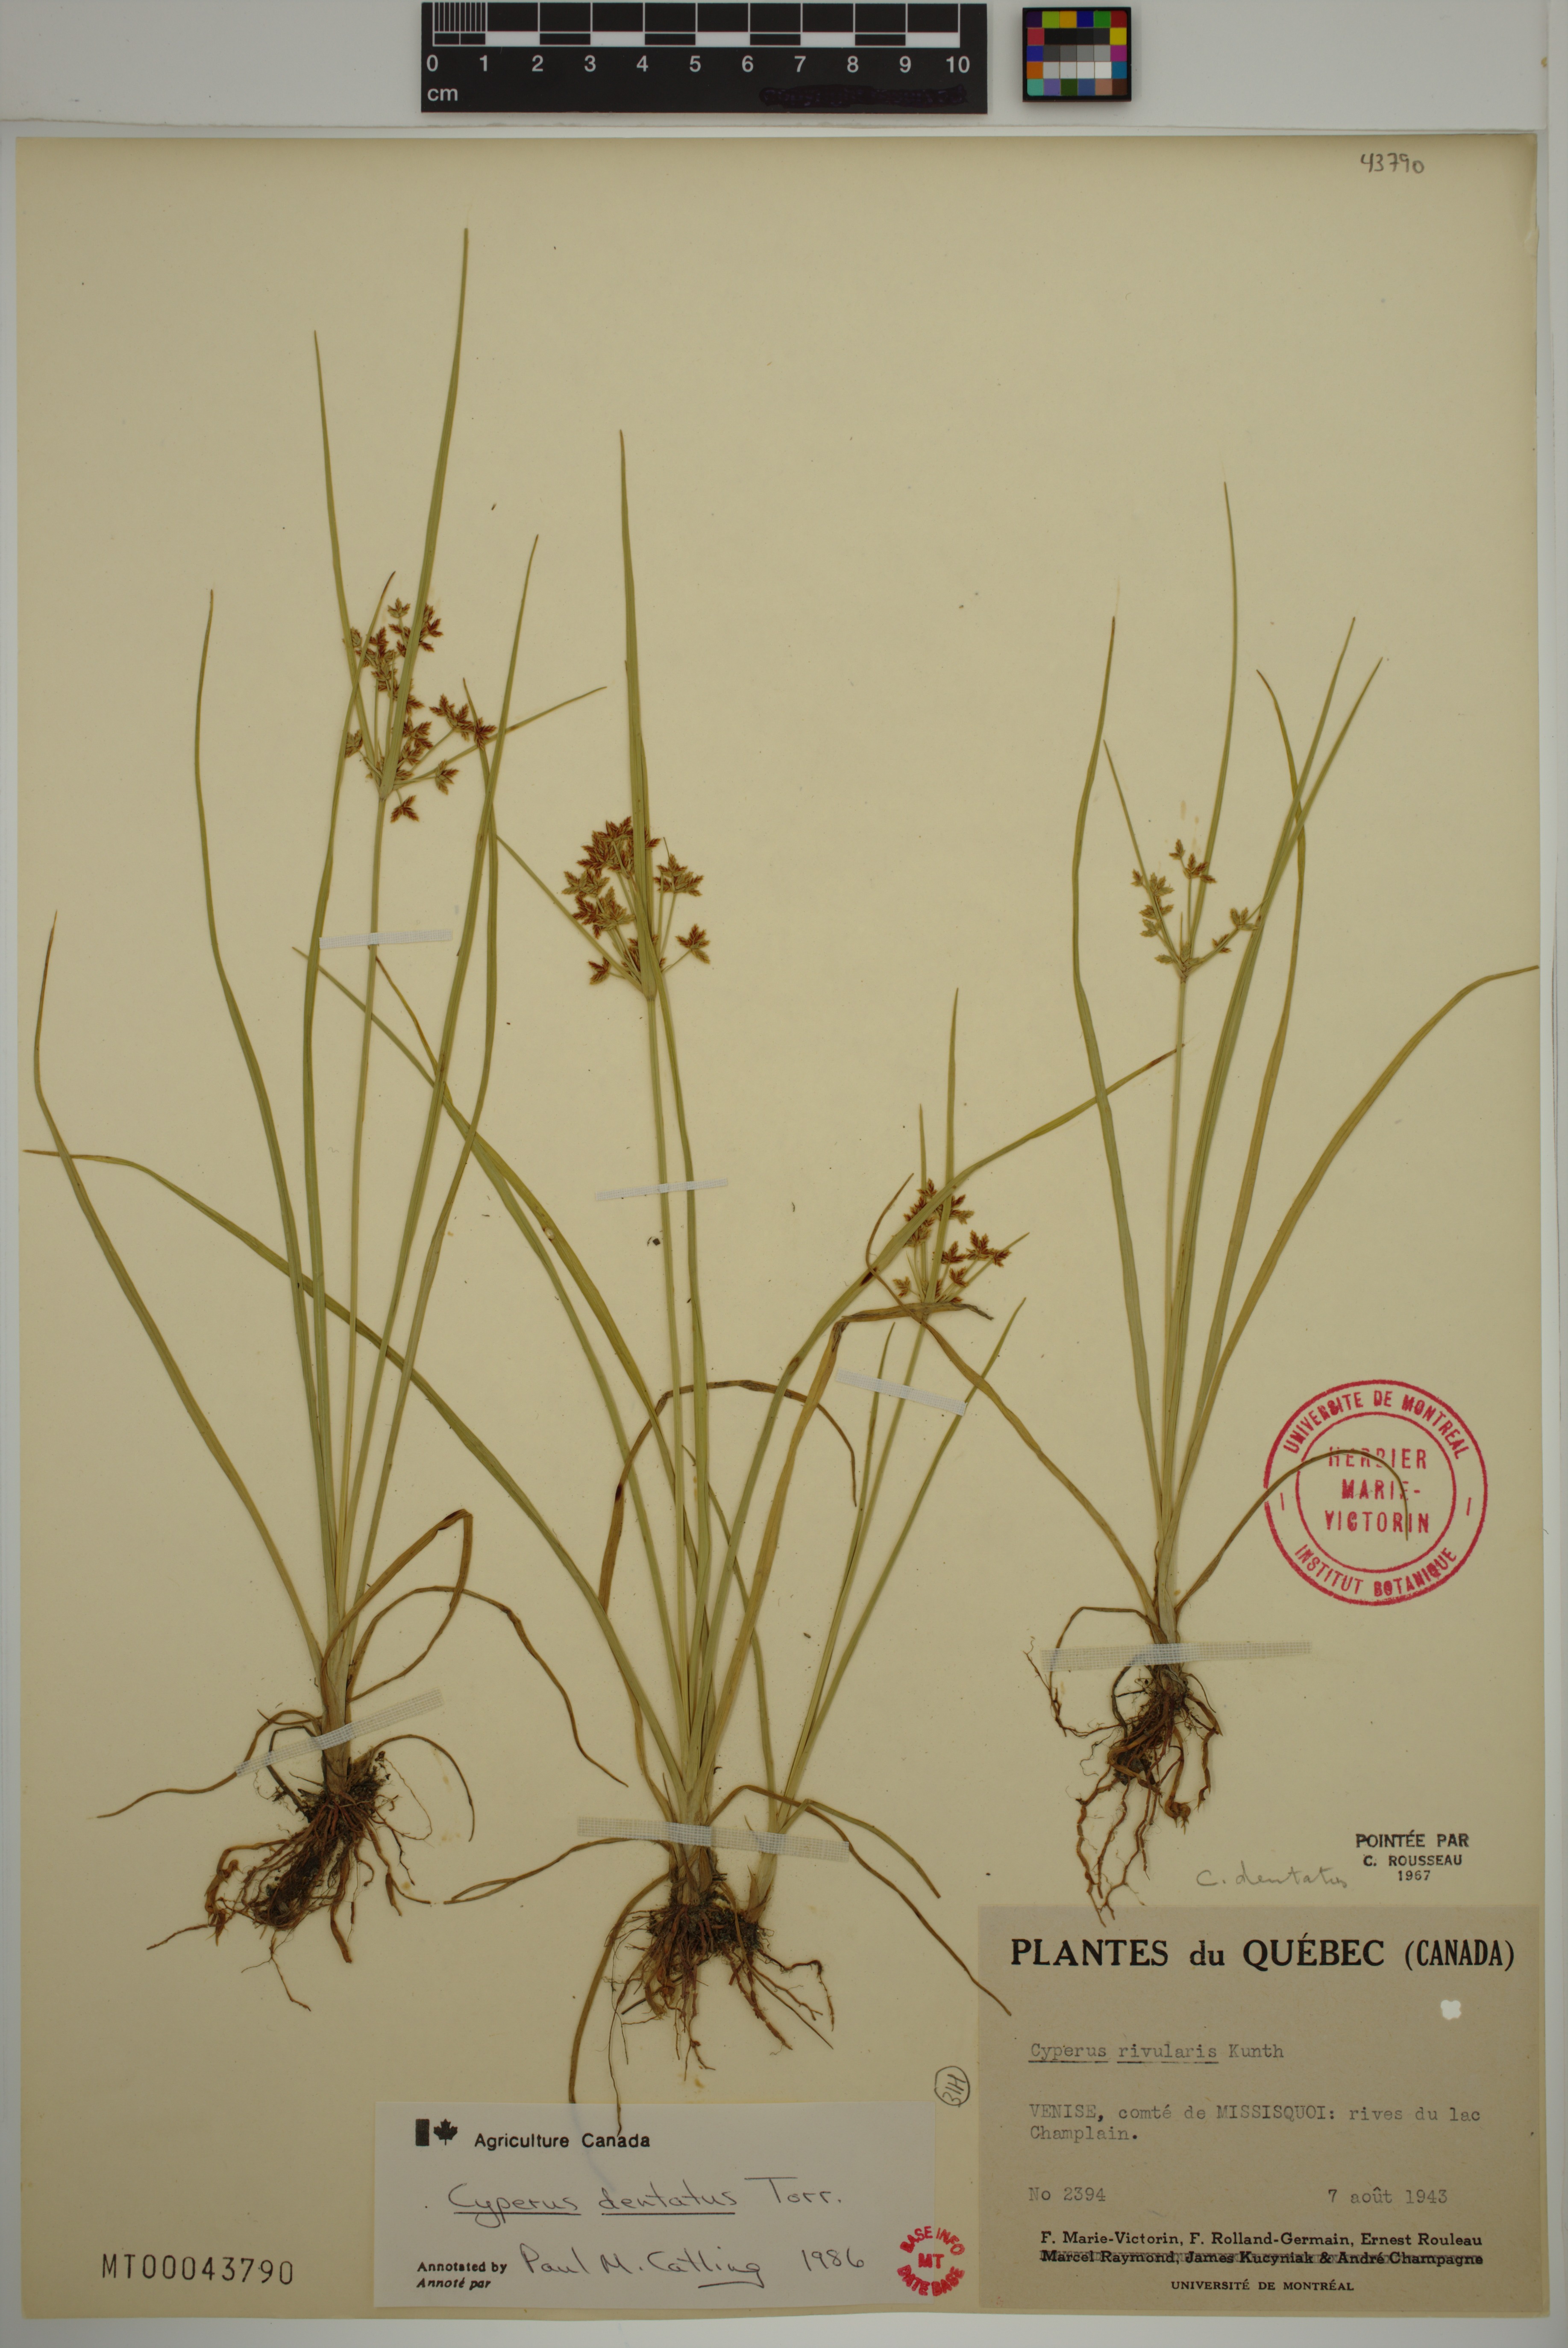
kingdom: Plantae
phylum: Tracheophyta
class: Liliopsida
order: Poales
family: Cyperaceae
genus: Cyperus
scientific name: Cyperus dentatus
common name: Dentate umbrella sedge
